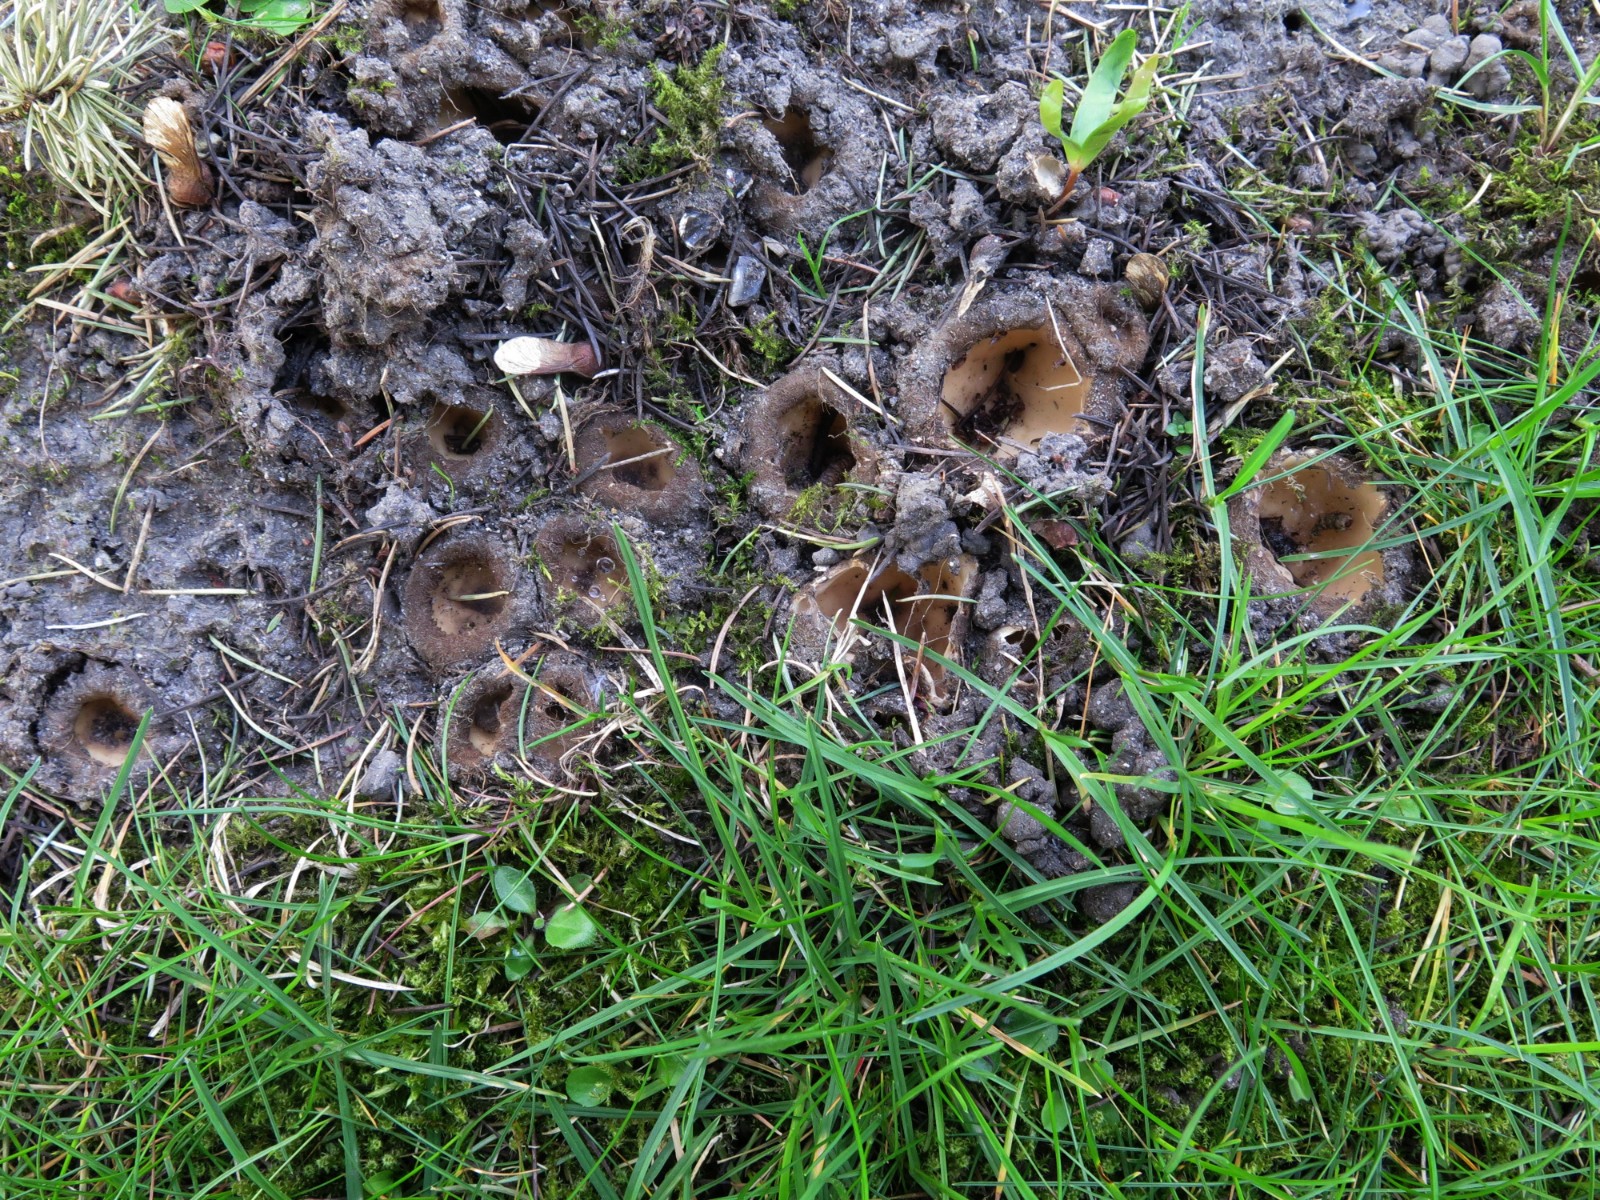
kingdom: Fungi
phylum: Ascomycota
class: Pezizomycetes
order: Pezizales
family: Pyronemataceae
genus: Geopora
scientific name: Geopora sumneriana
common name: vår-jordbæger
